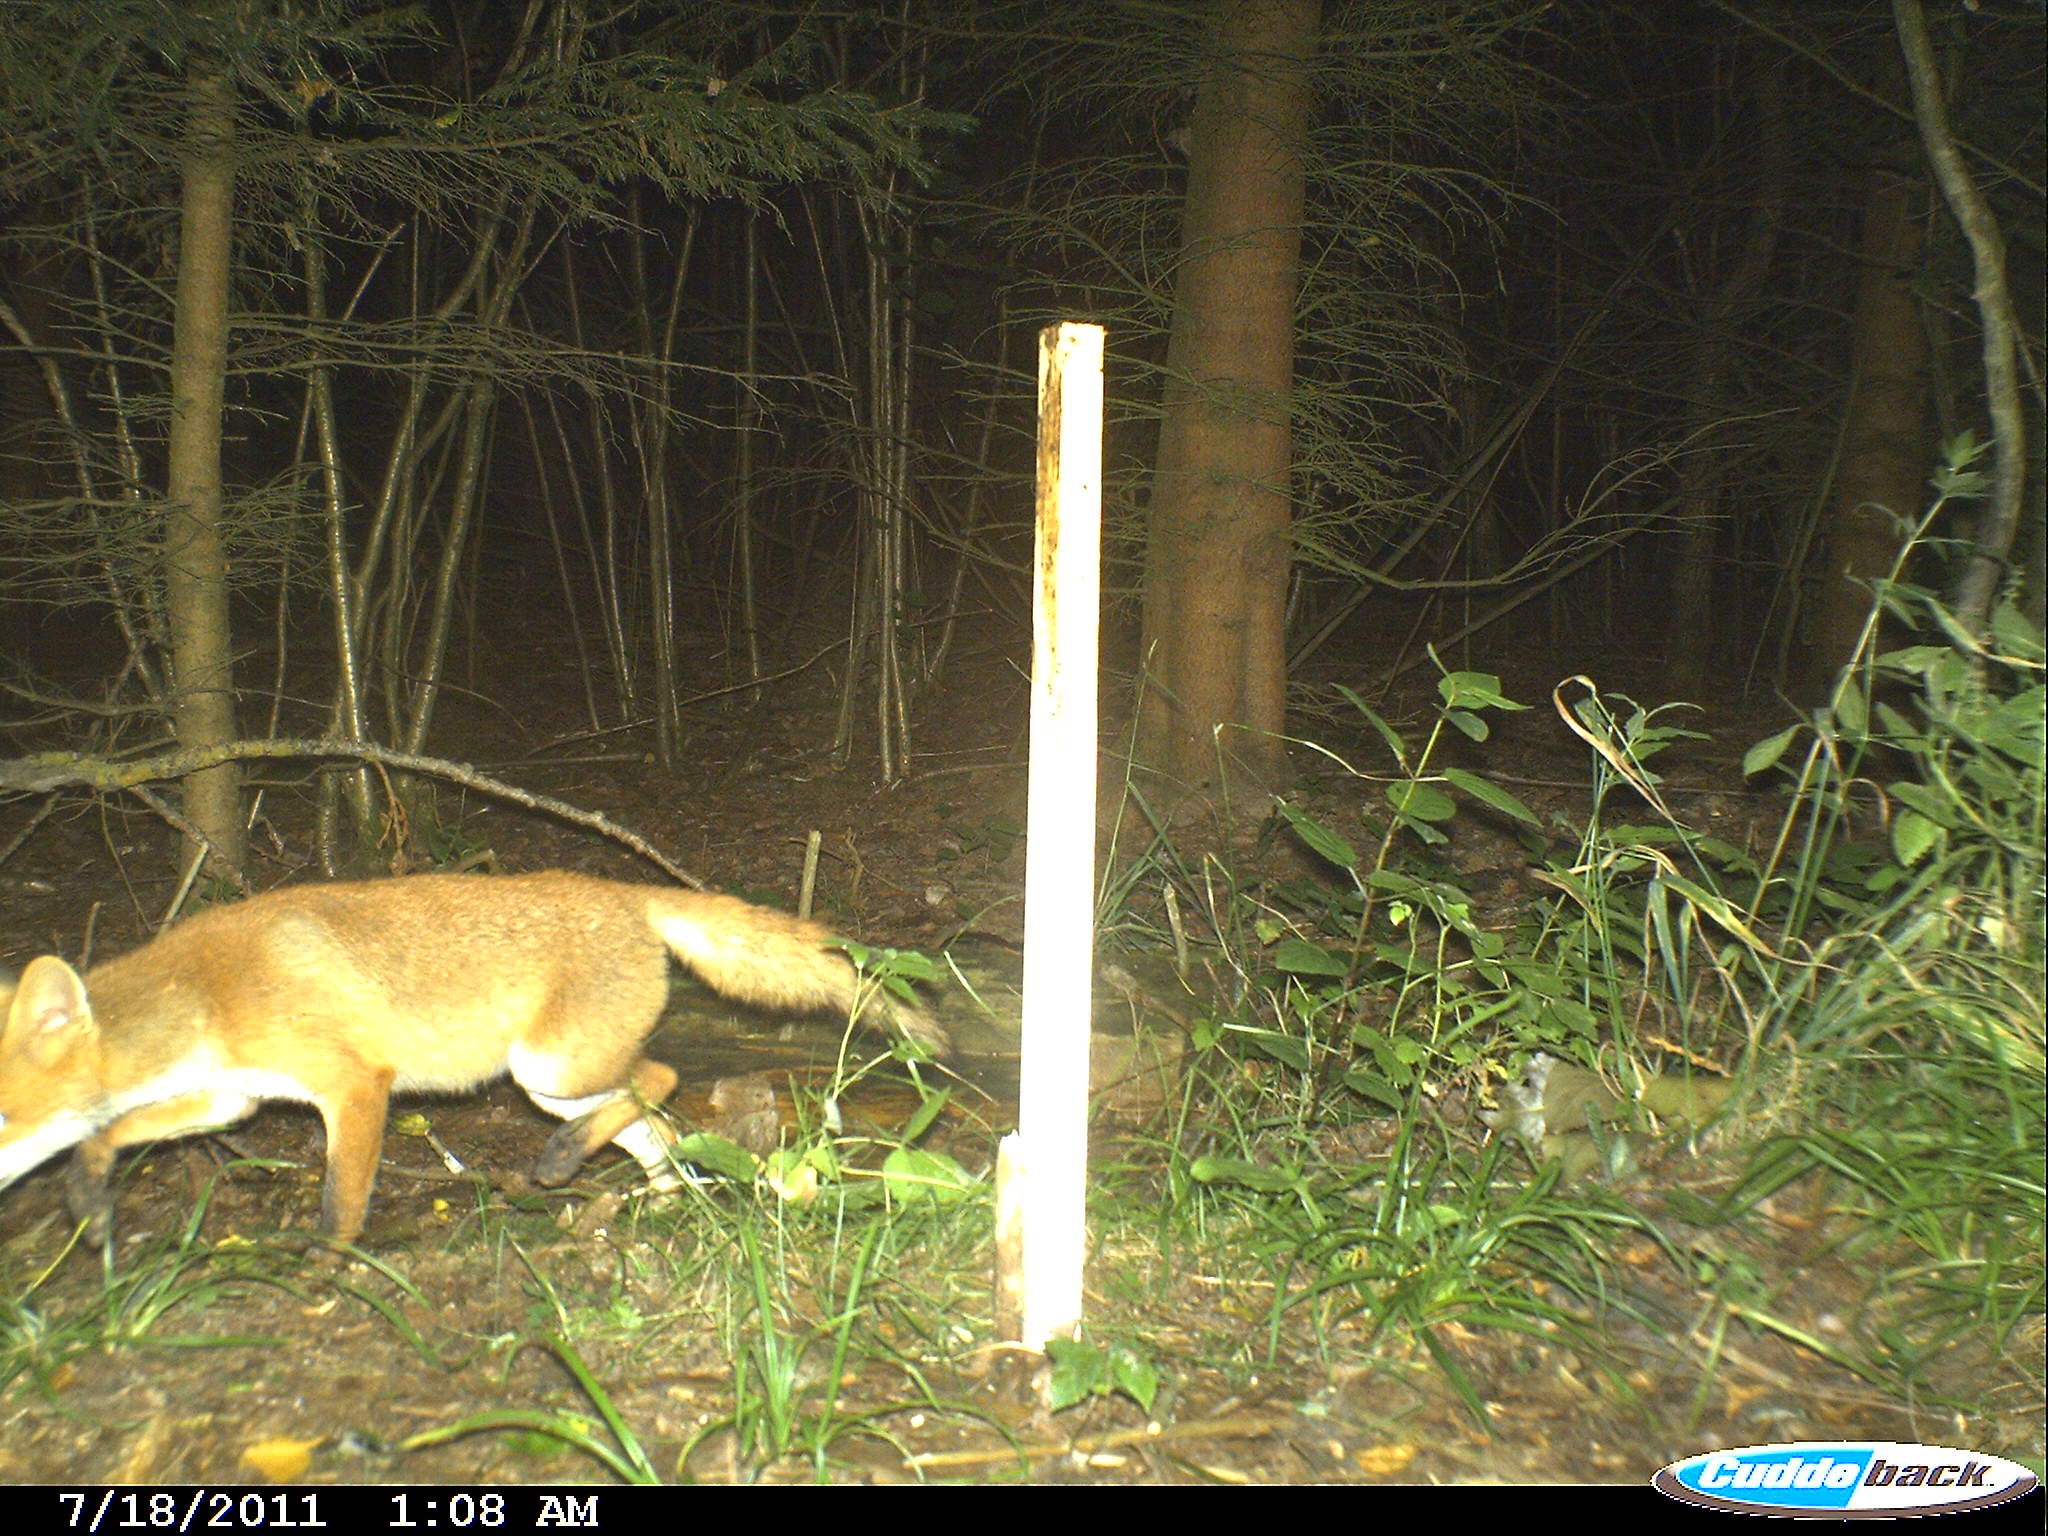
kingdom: Animalia
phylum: Chordata
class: Mammalia
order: Carnivora
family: Canidae
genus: Vulpes
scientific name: Vulpes vulpes
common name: Red fox
